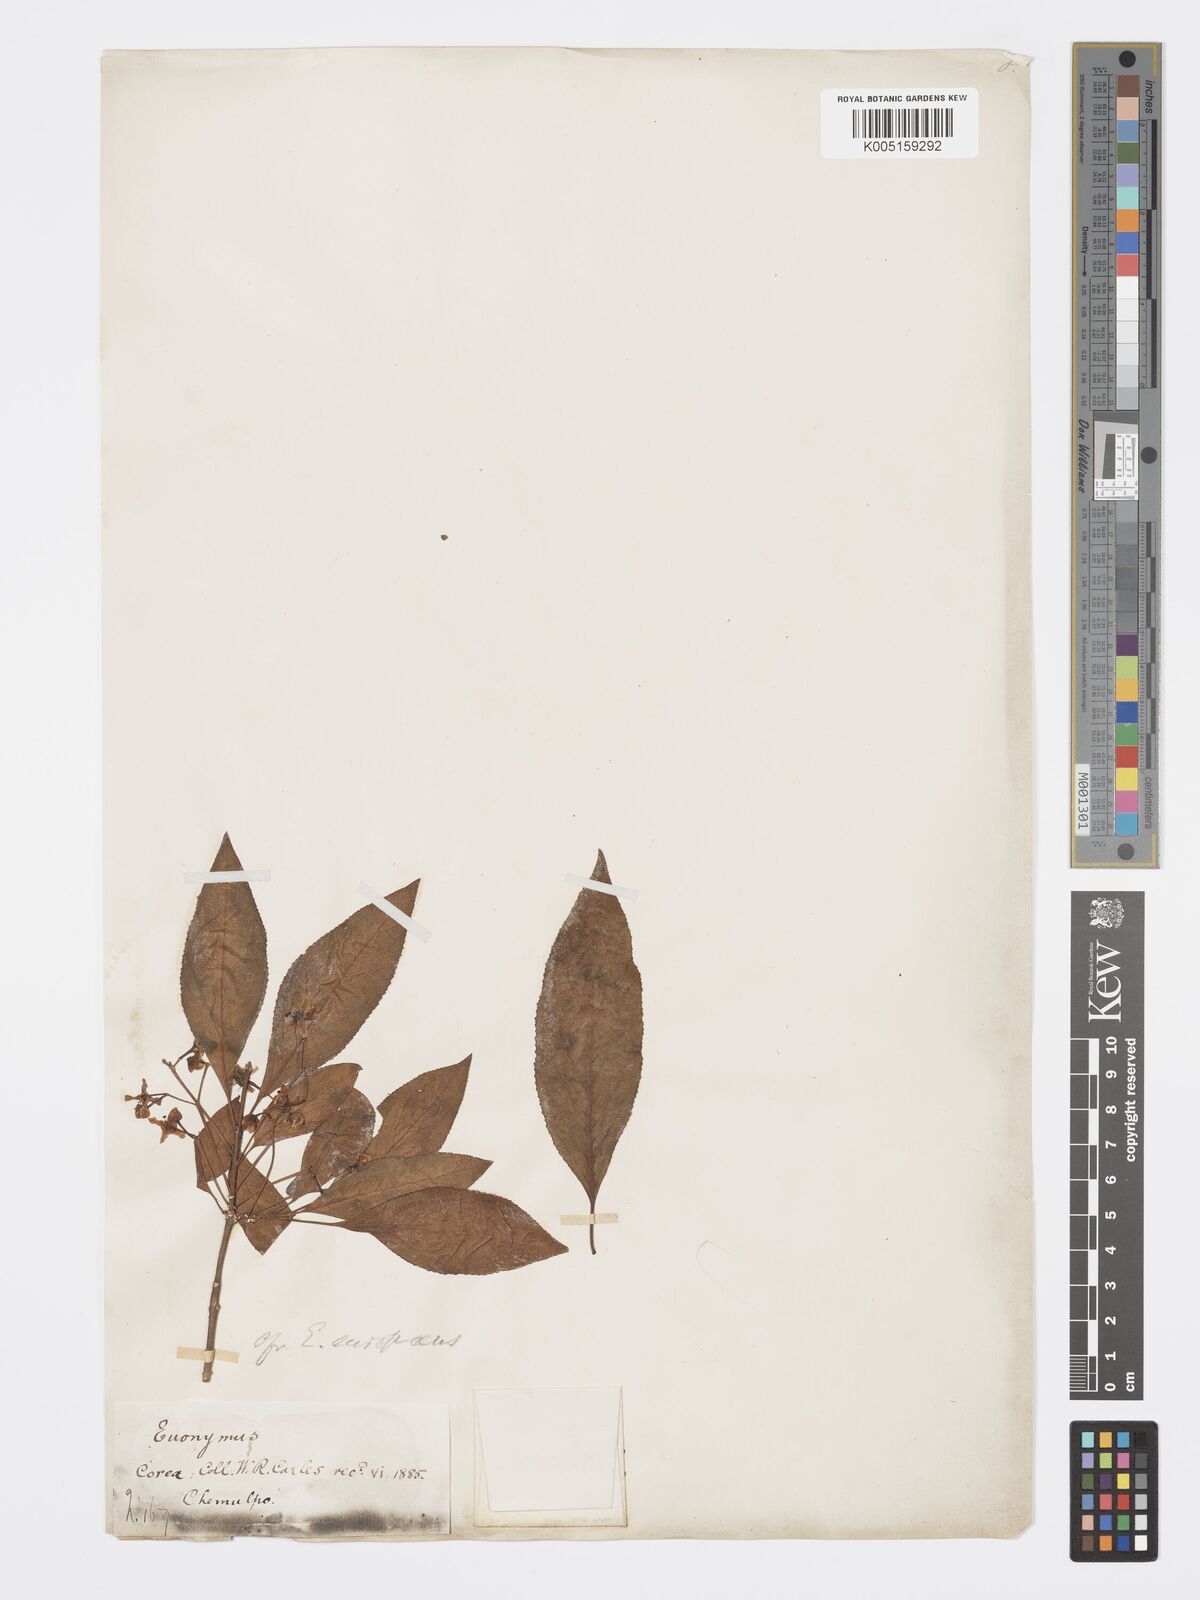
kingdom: Plantae
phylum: Tracheophyta
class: Magnoliopsida
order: Celastrales
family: Celastraceae
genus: Euonymus
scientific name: Euonymus maackii
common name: Hamilton's spindletree
